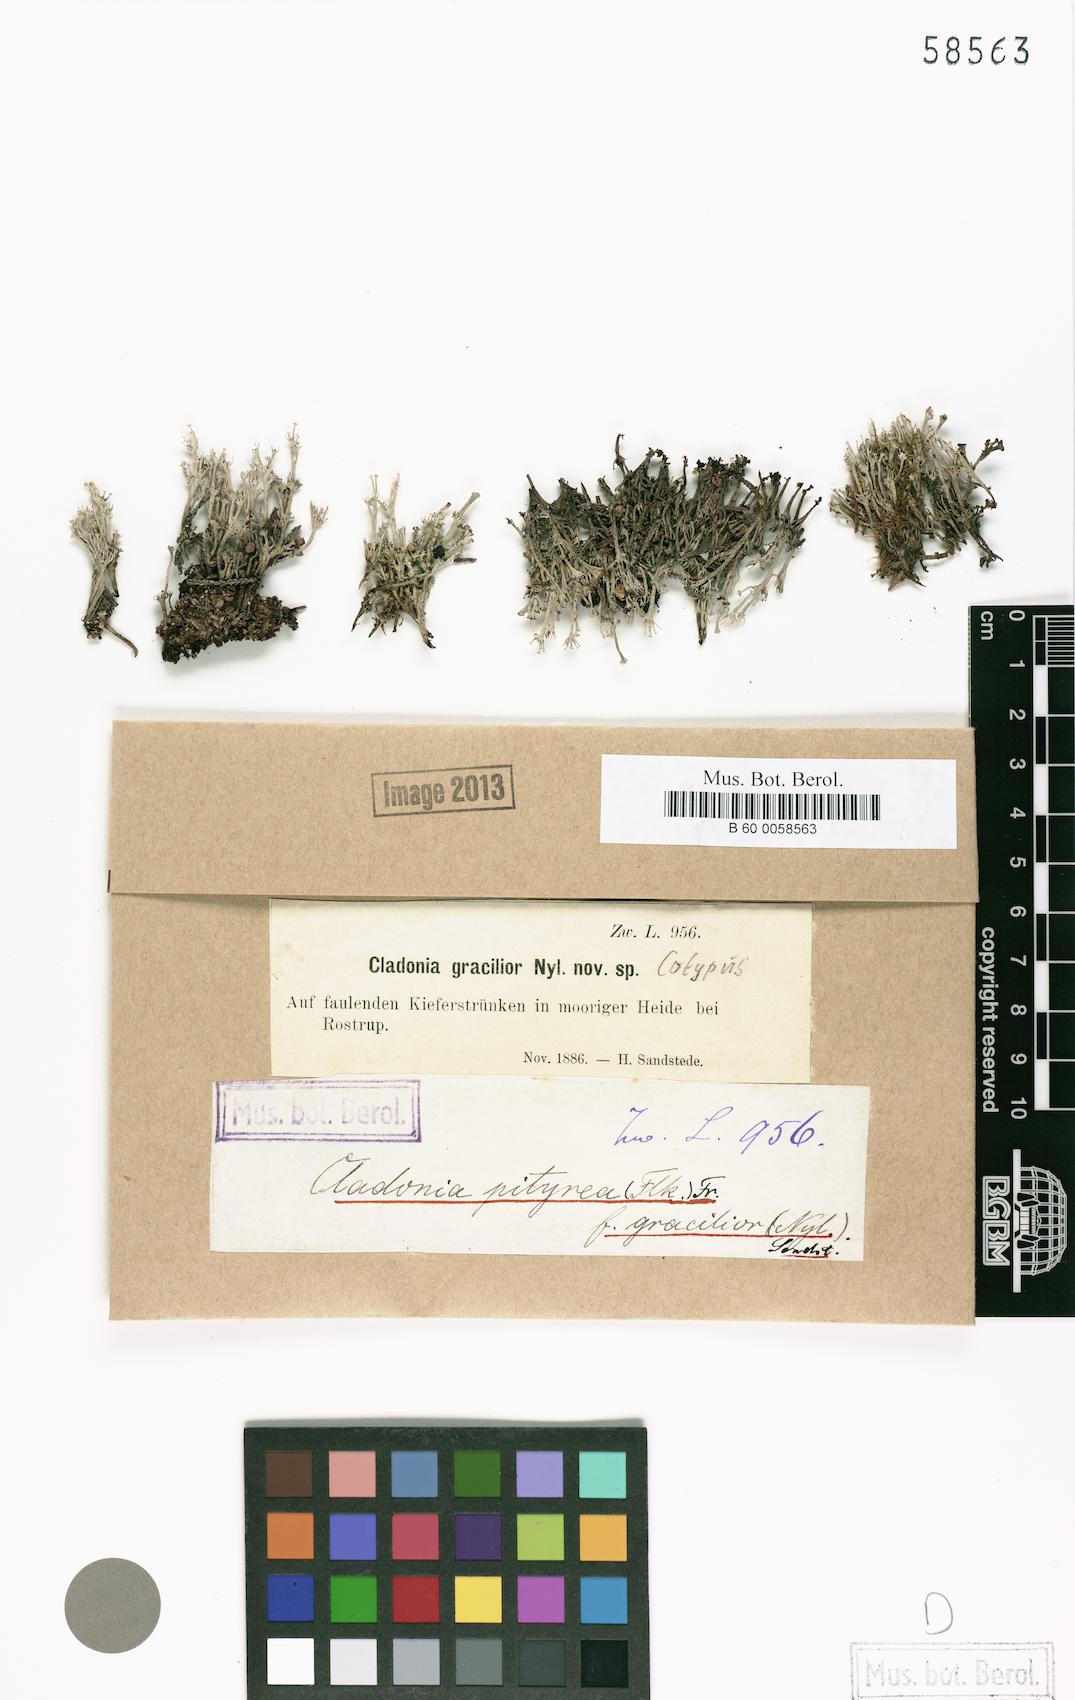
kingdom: Fungi
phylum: Ascomycota
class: Lecanoromycetes
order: Lecanorales
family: Cladoniaceae
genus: Cladonia
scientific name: Cladonia ramulosa
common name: Branched pixie-cup lichen
